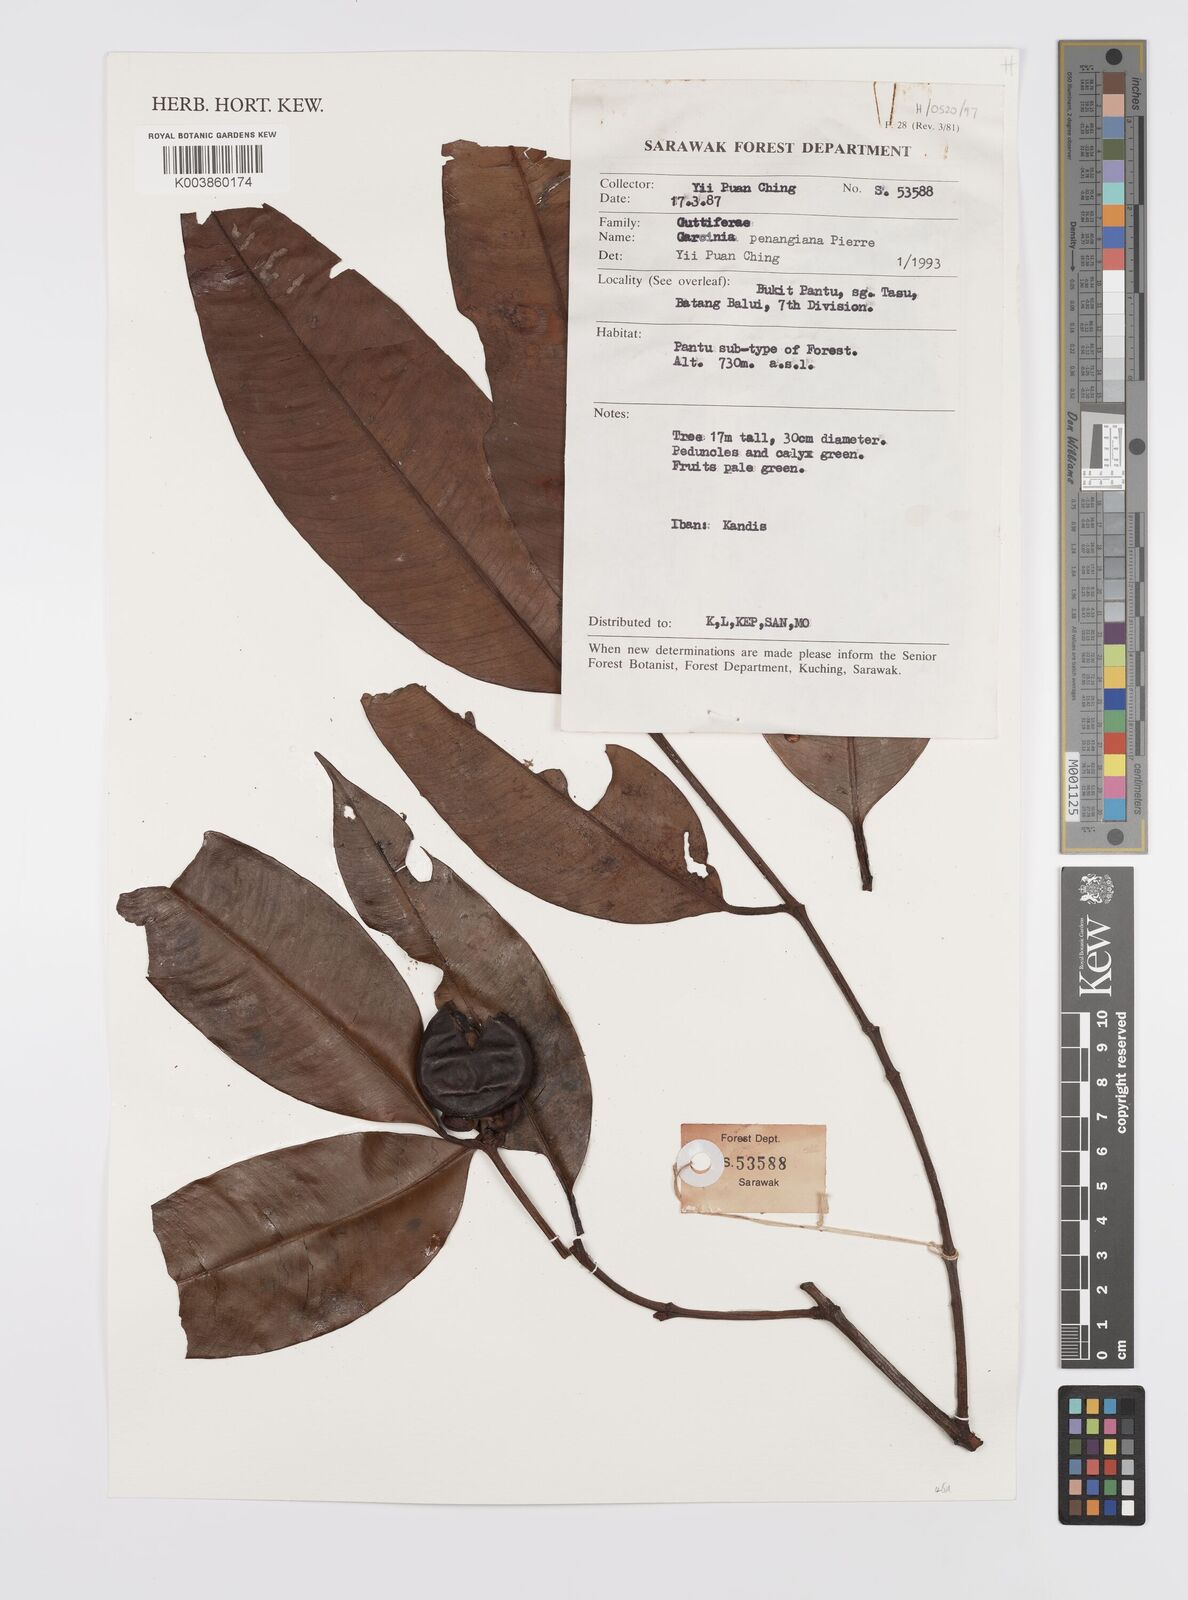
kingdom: Plantae
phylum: Tracheophyta
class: Magnoliopsida
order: Malpighiales
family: Clusiaceae
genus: Garcinia
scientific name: Garcinia penangiana
